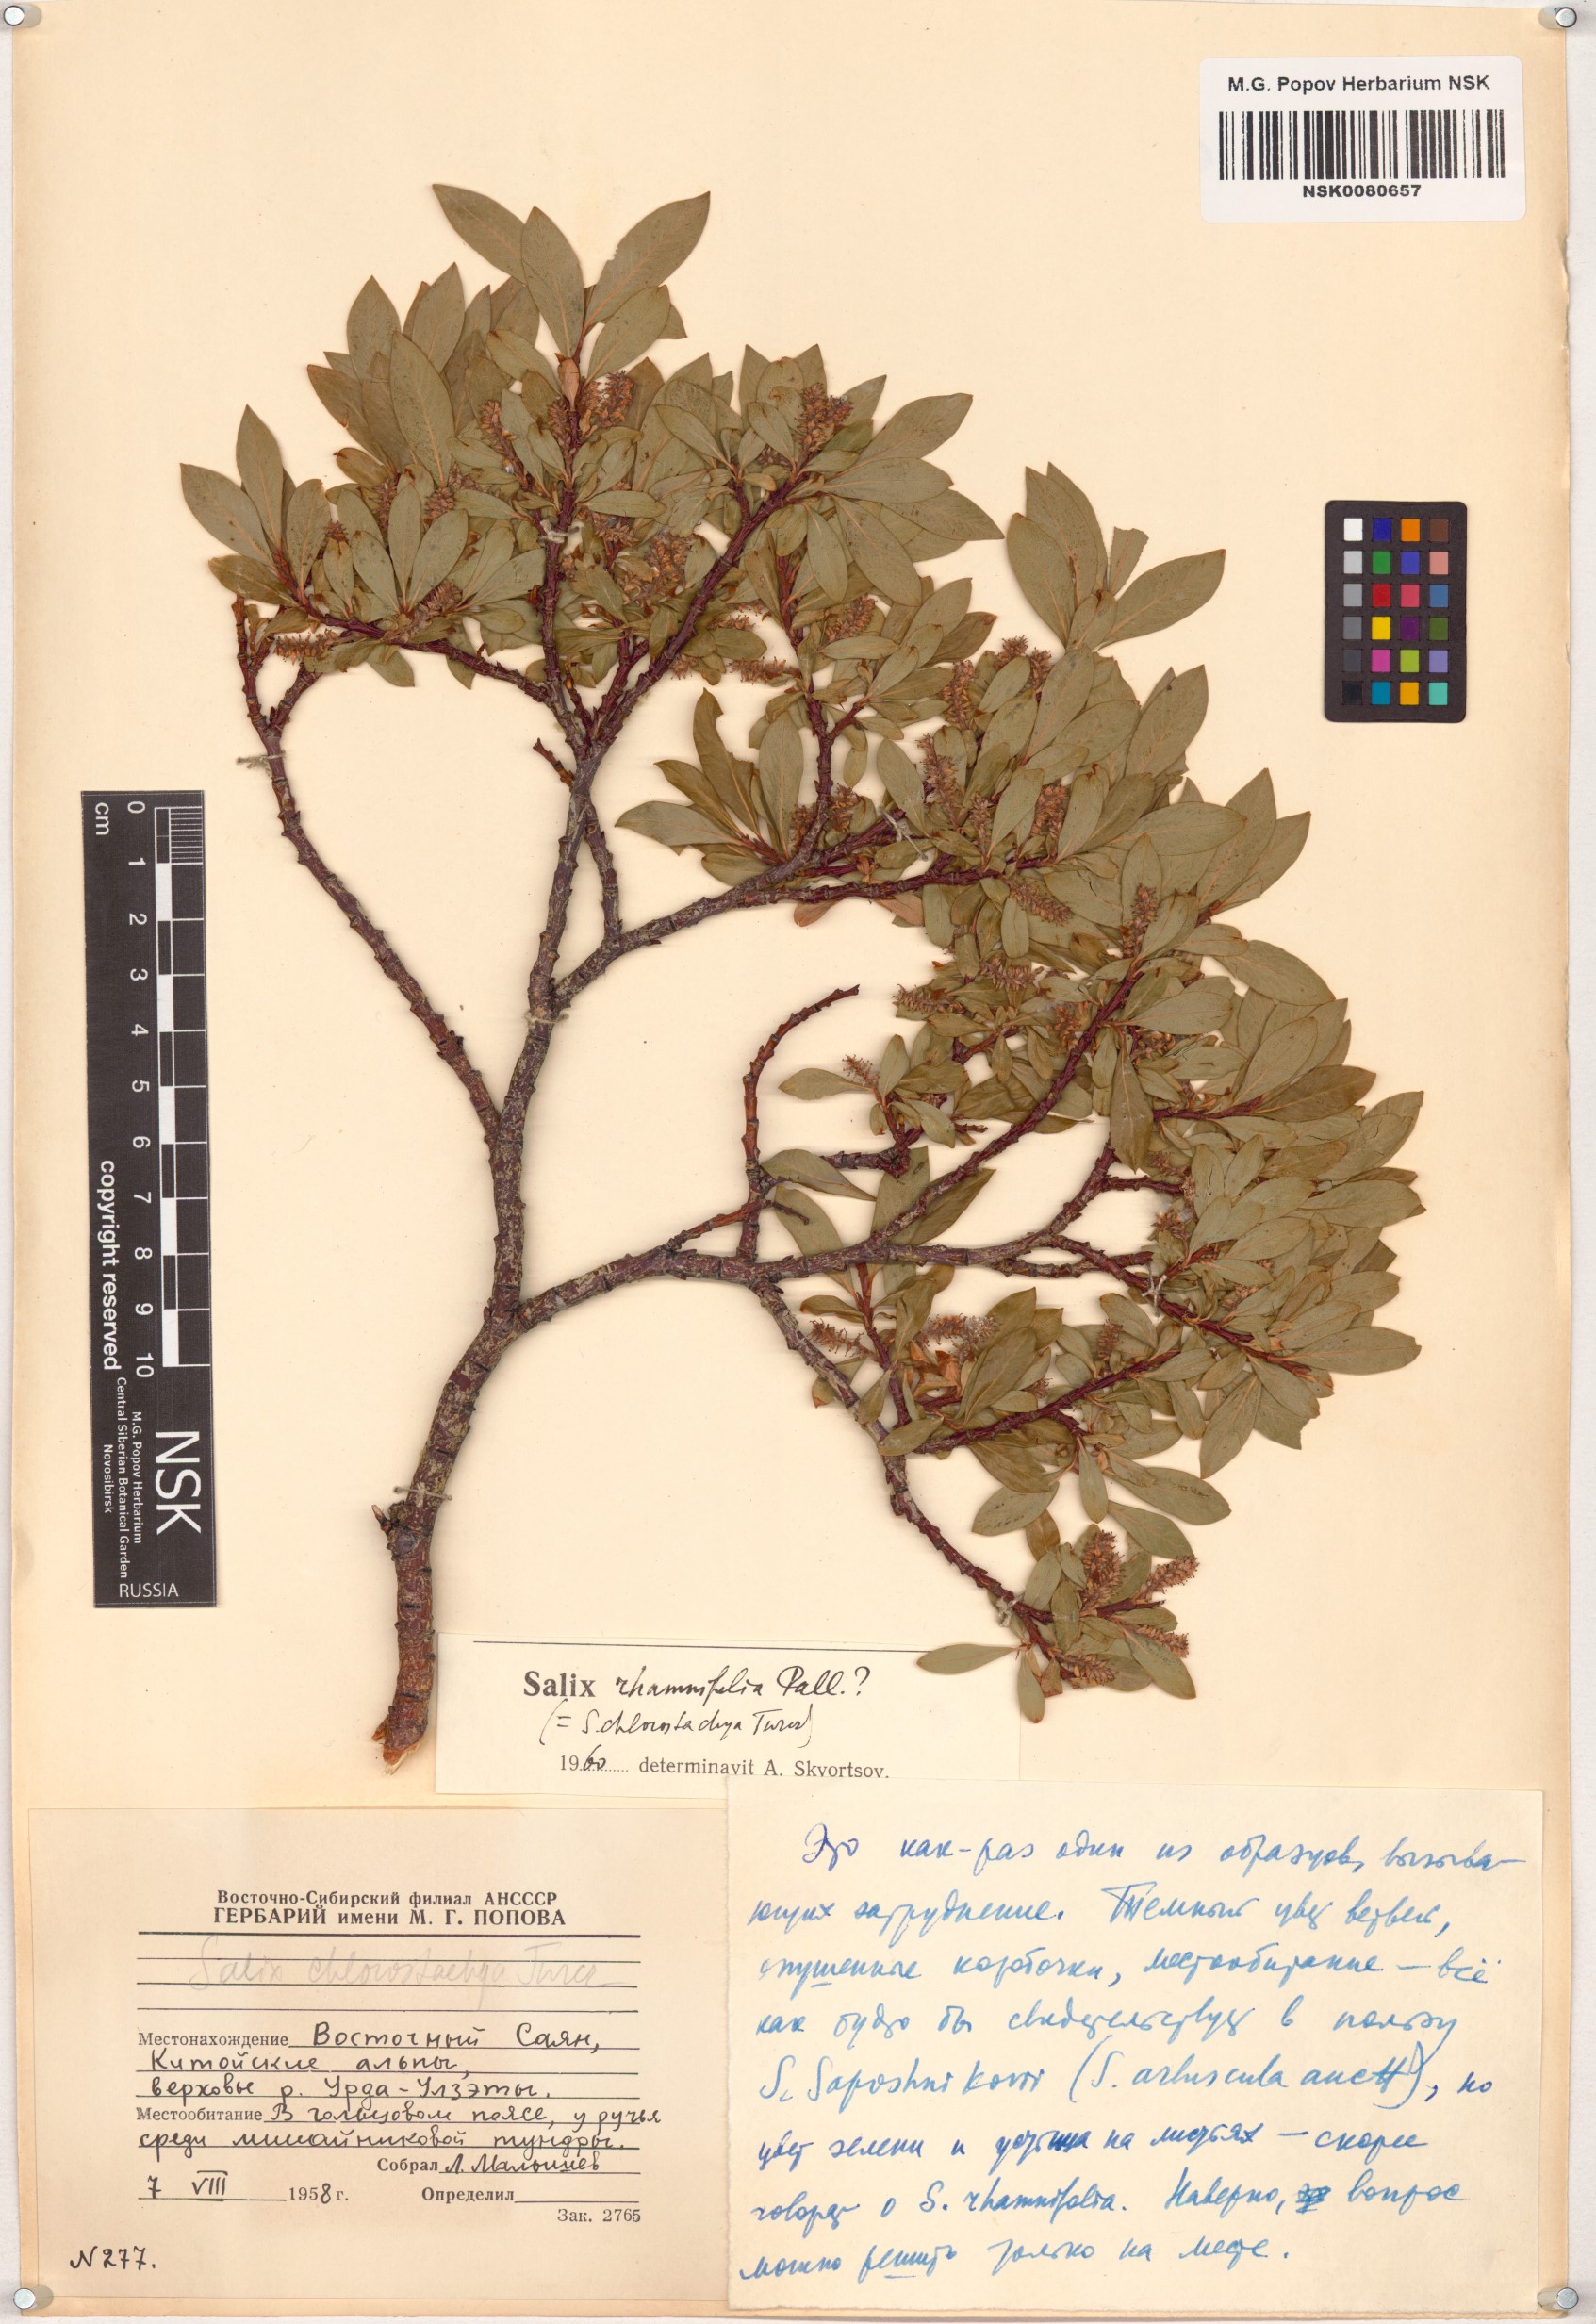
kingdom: Plantae
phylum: Tracheophyta
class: Magnoliopsida
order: Malpighiales
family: Salicaceae
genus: Salix
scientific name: Salix rhamnifolia
